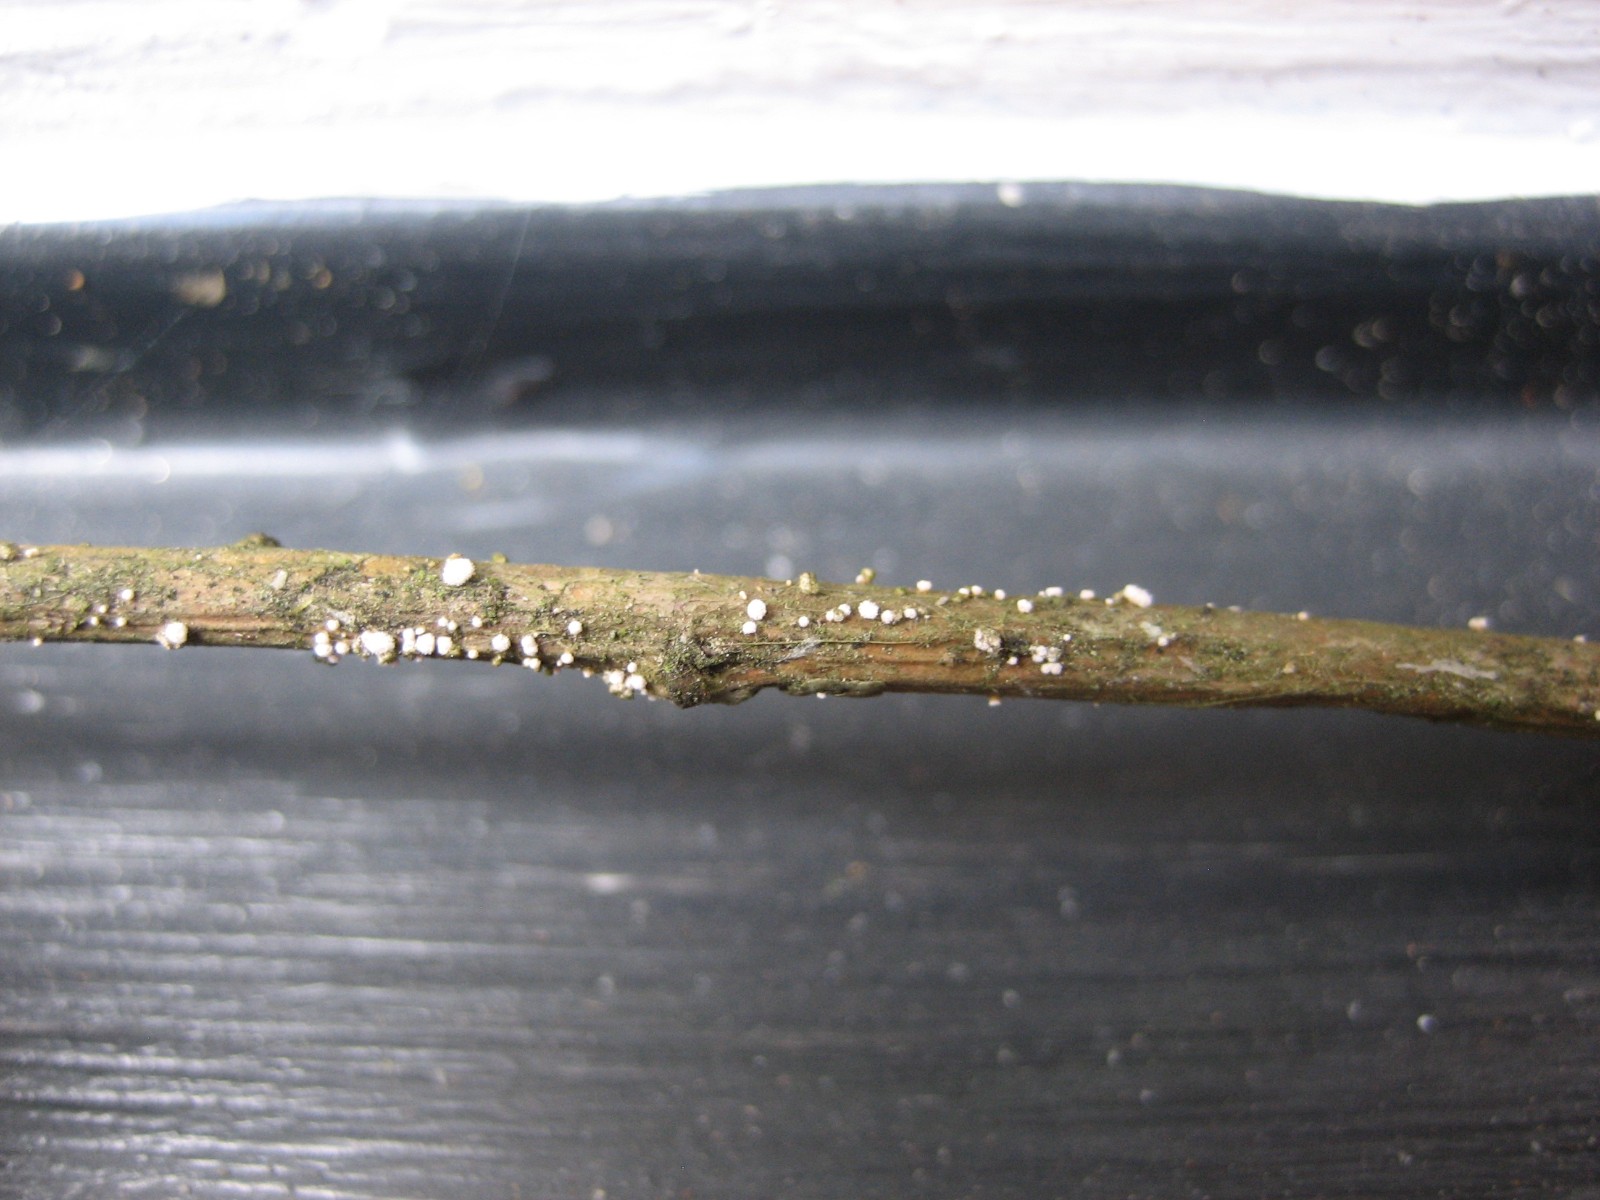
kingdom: Fungi
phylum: Ascomycota
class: Leotiomycetes
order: Helotiales
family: Lachnaceae
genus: Capitotricha
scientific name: Capitotricha bicolor
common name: prægtig frynseskive
